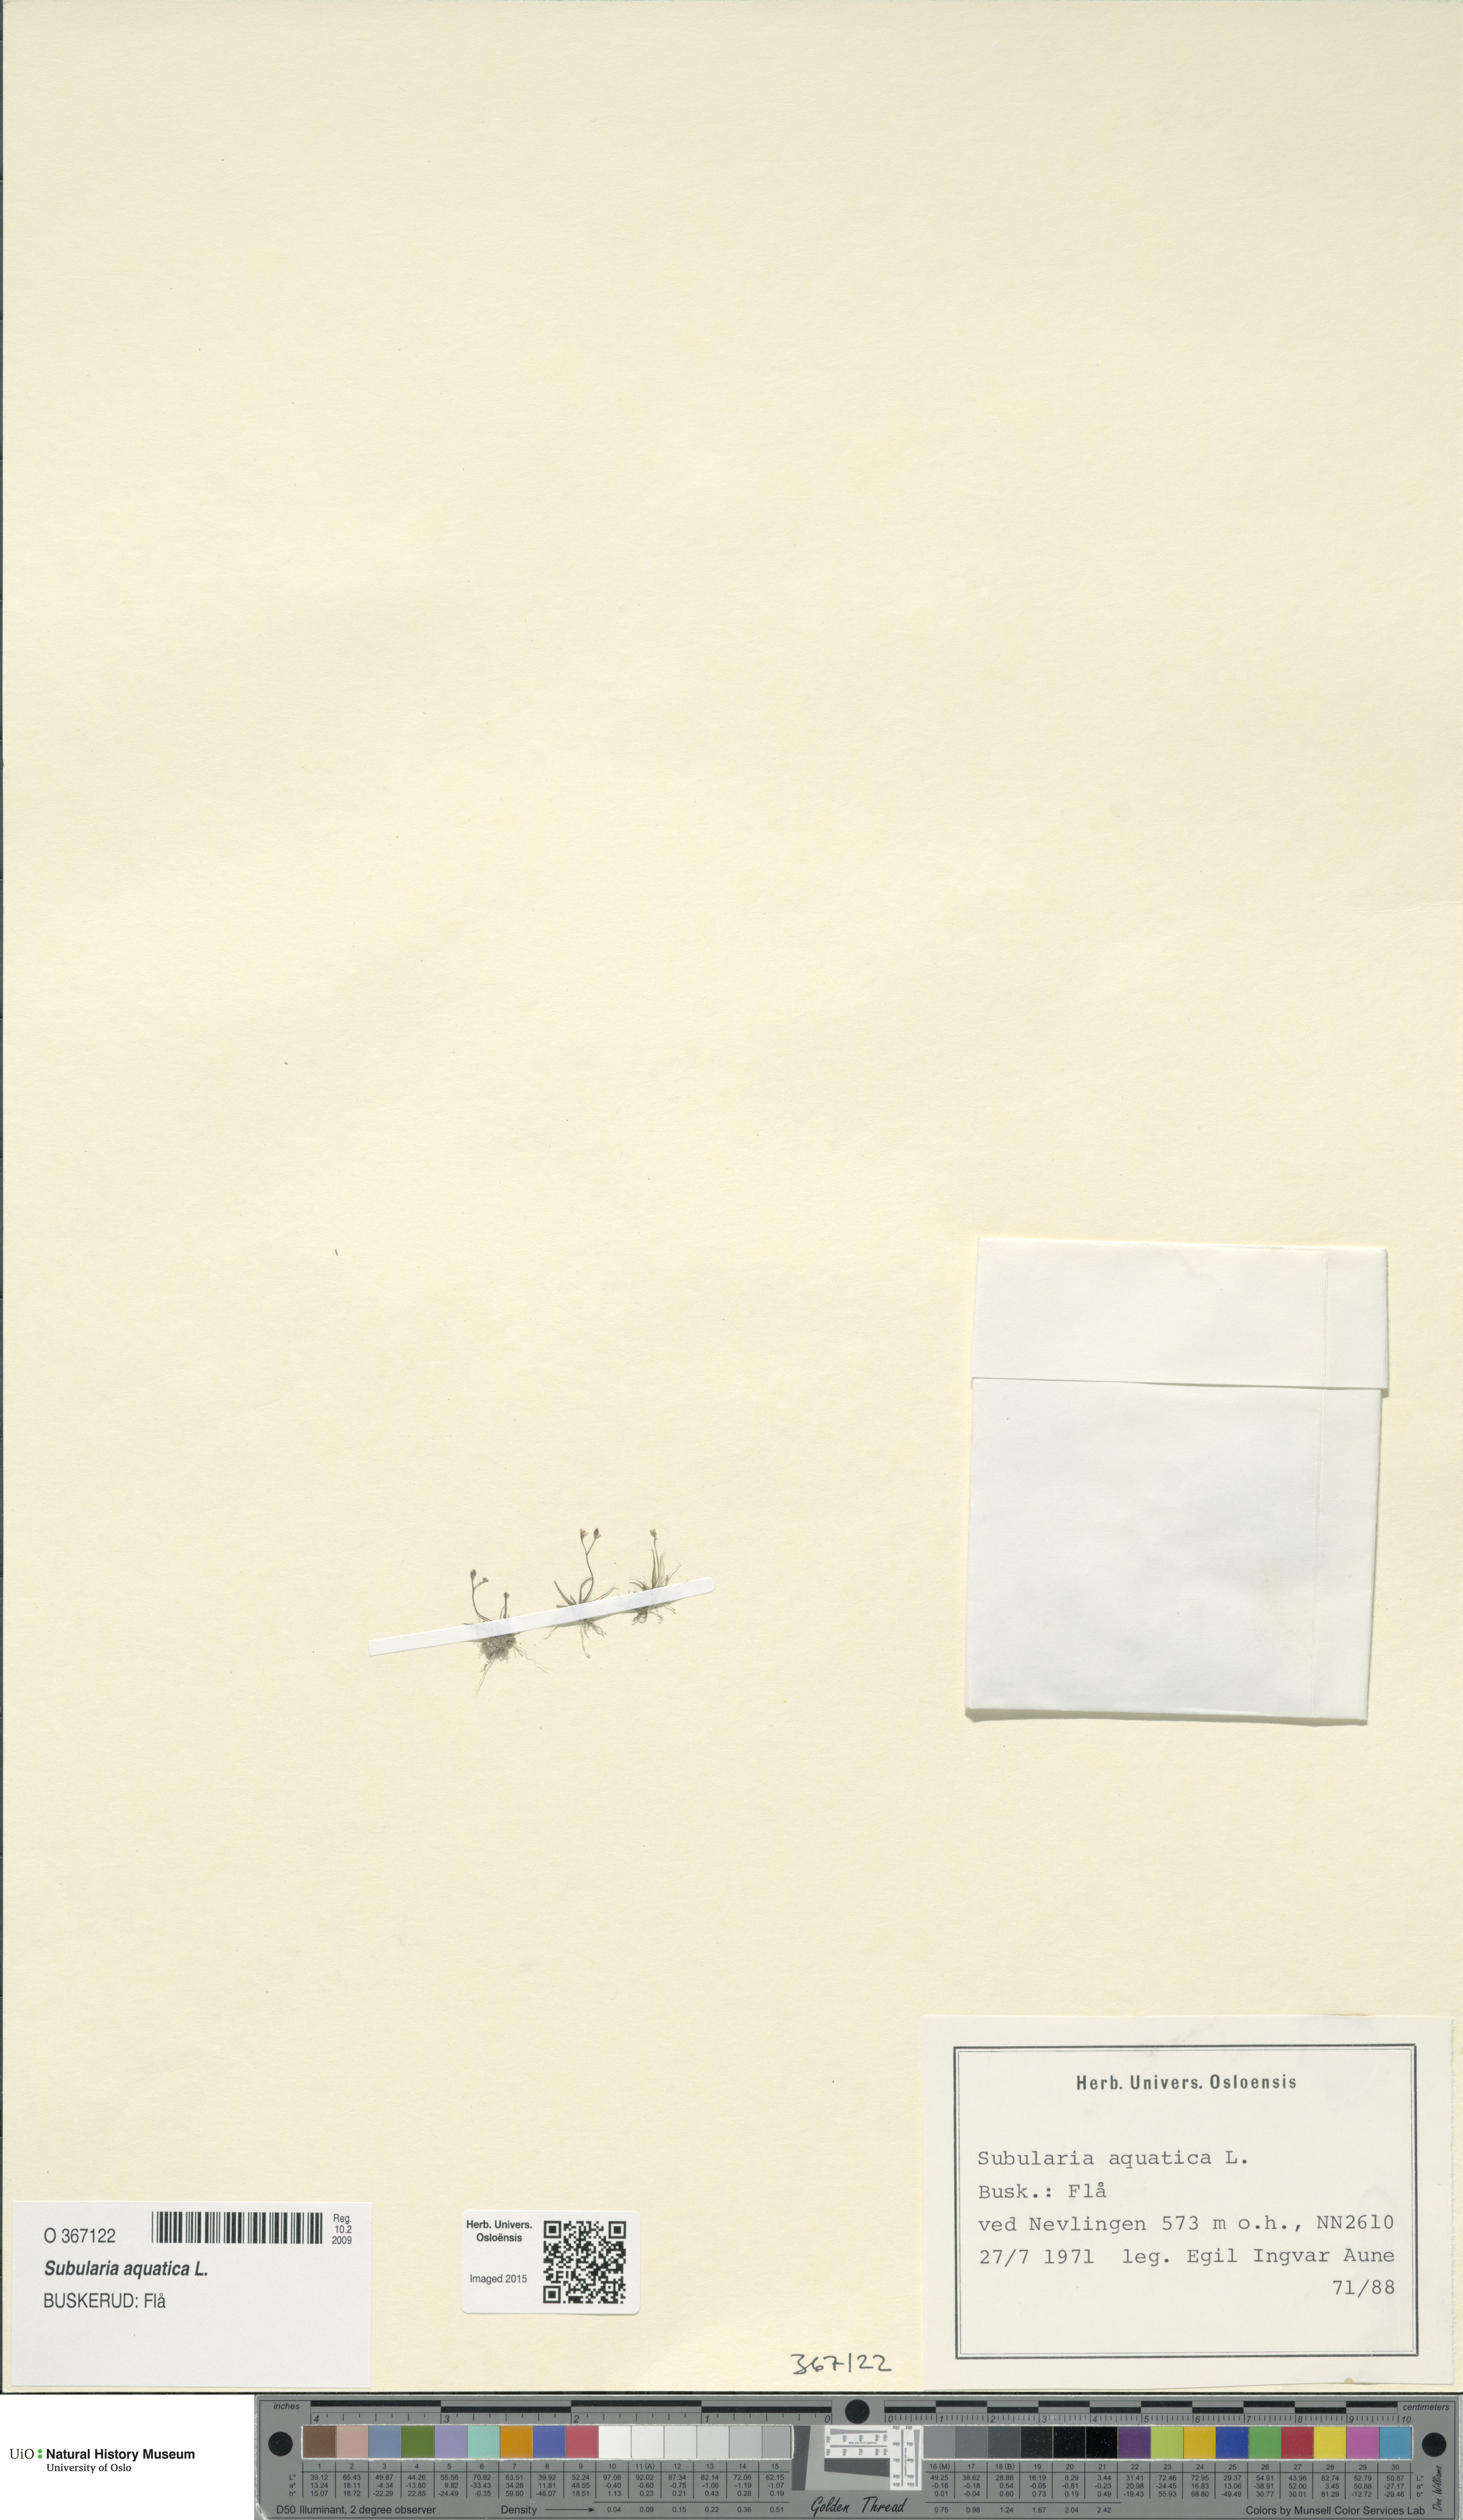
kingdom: Plantae
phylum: Tracheophyta
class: Magnoliopsida
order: Brassicales
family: Brassicaceae
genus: Subularia
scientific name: Subularia aquatica
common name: Awlwort
